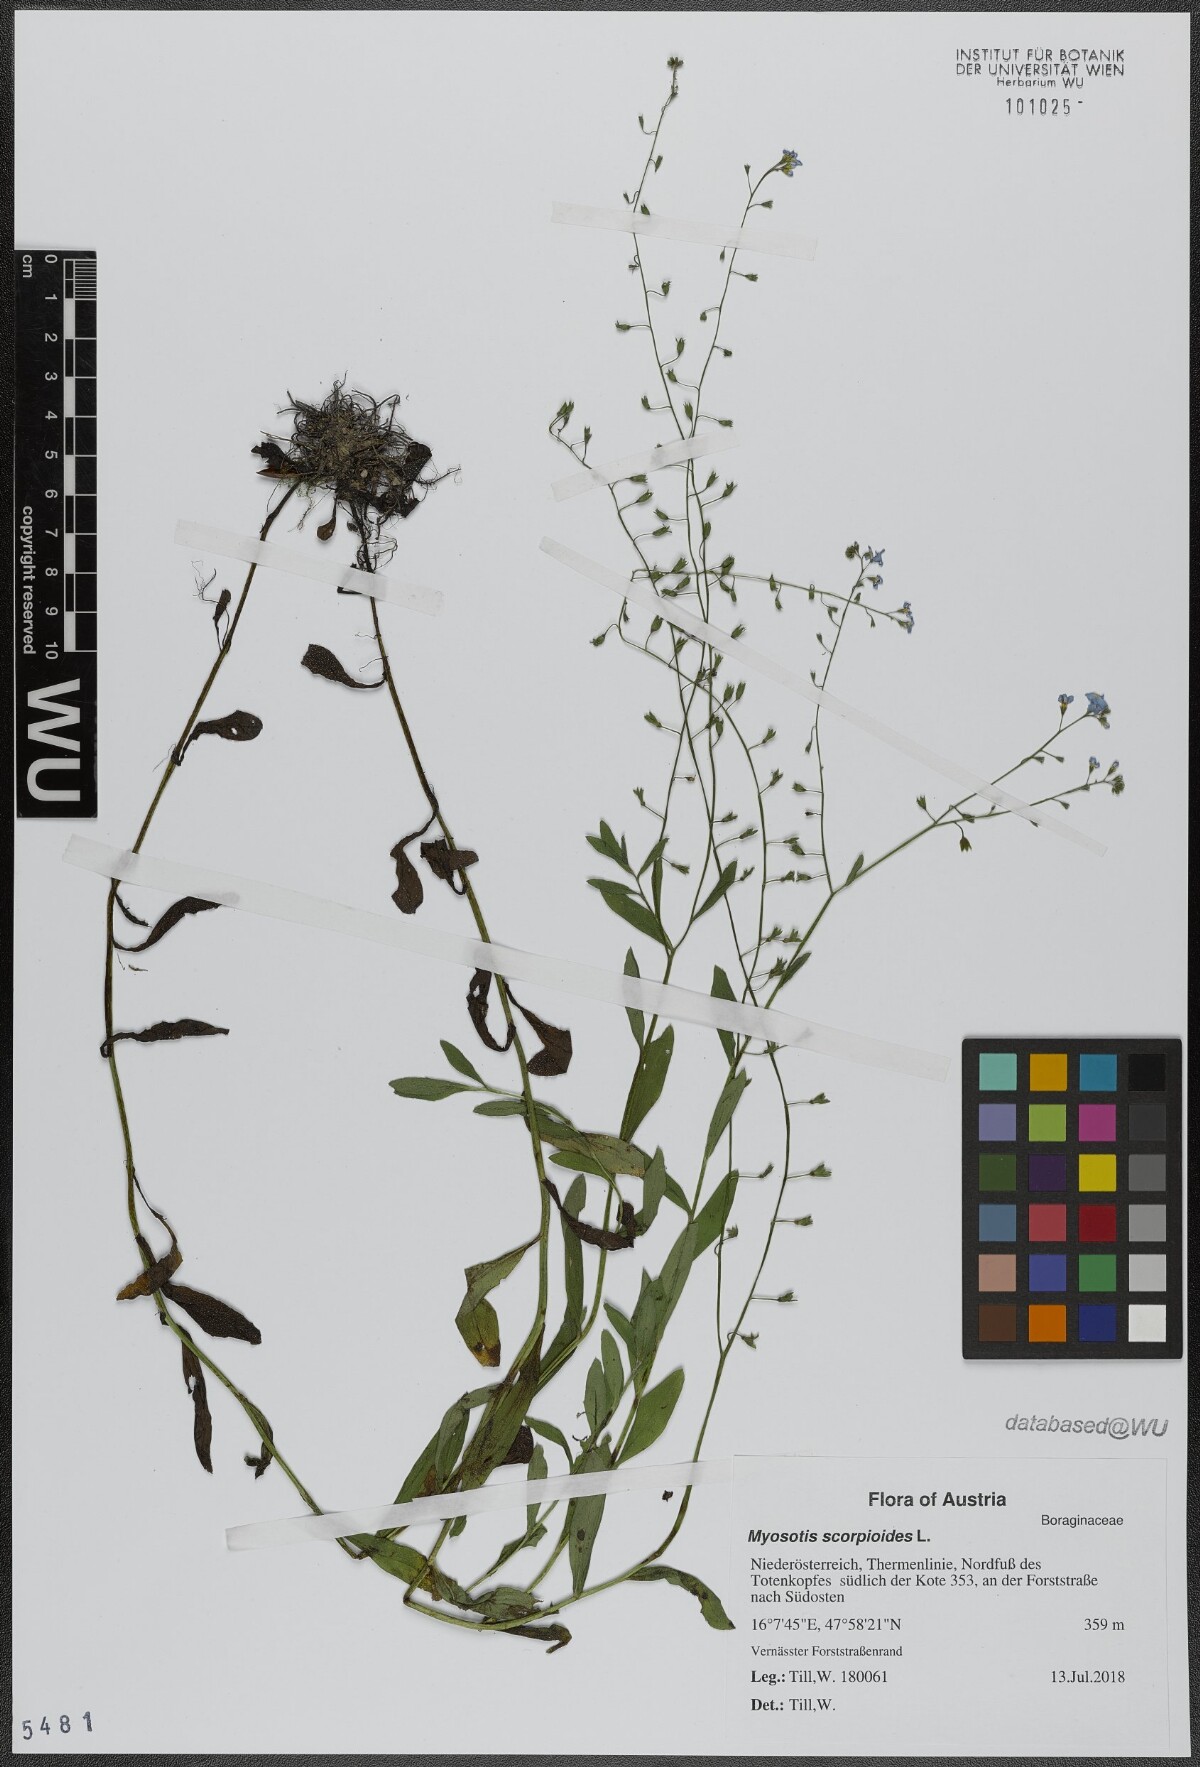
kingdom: Plantae
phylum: Tracheophyta
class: Magnoliopsida
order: Boraginales
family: Boraginaceae
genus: Myosotis
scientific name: Myosotis scorpioides
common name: Water forget-me-not
